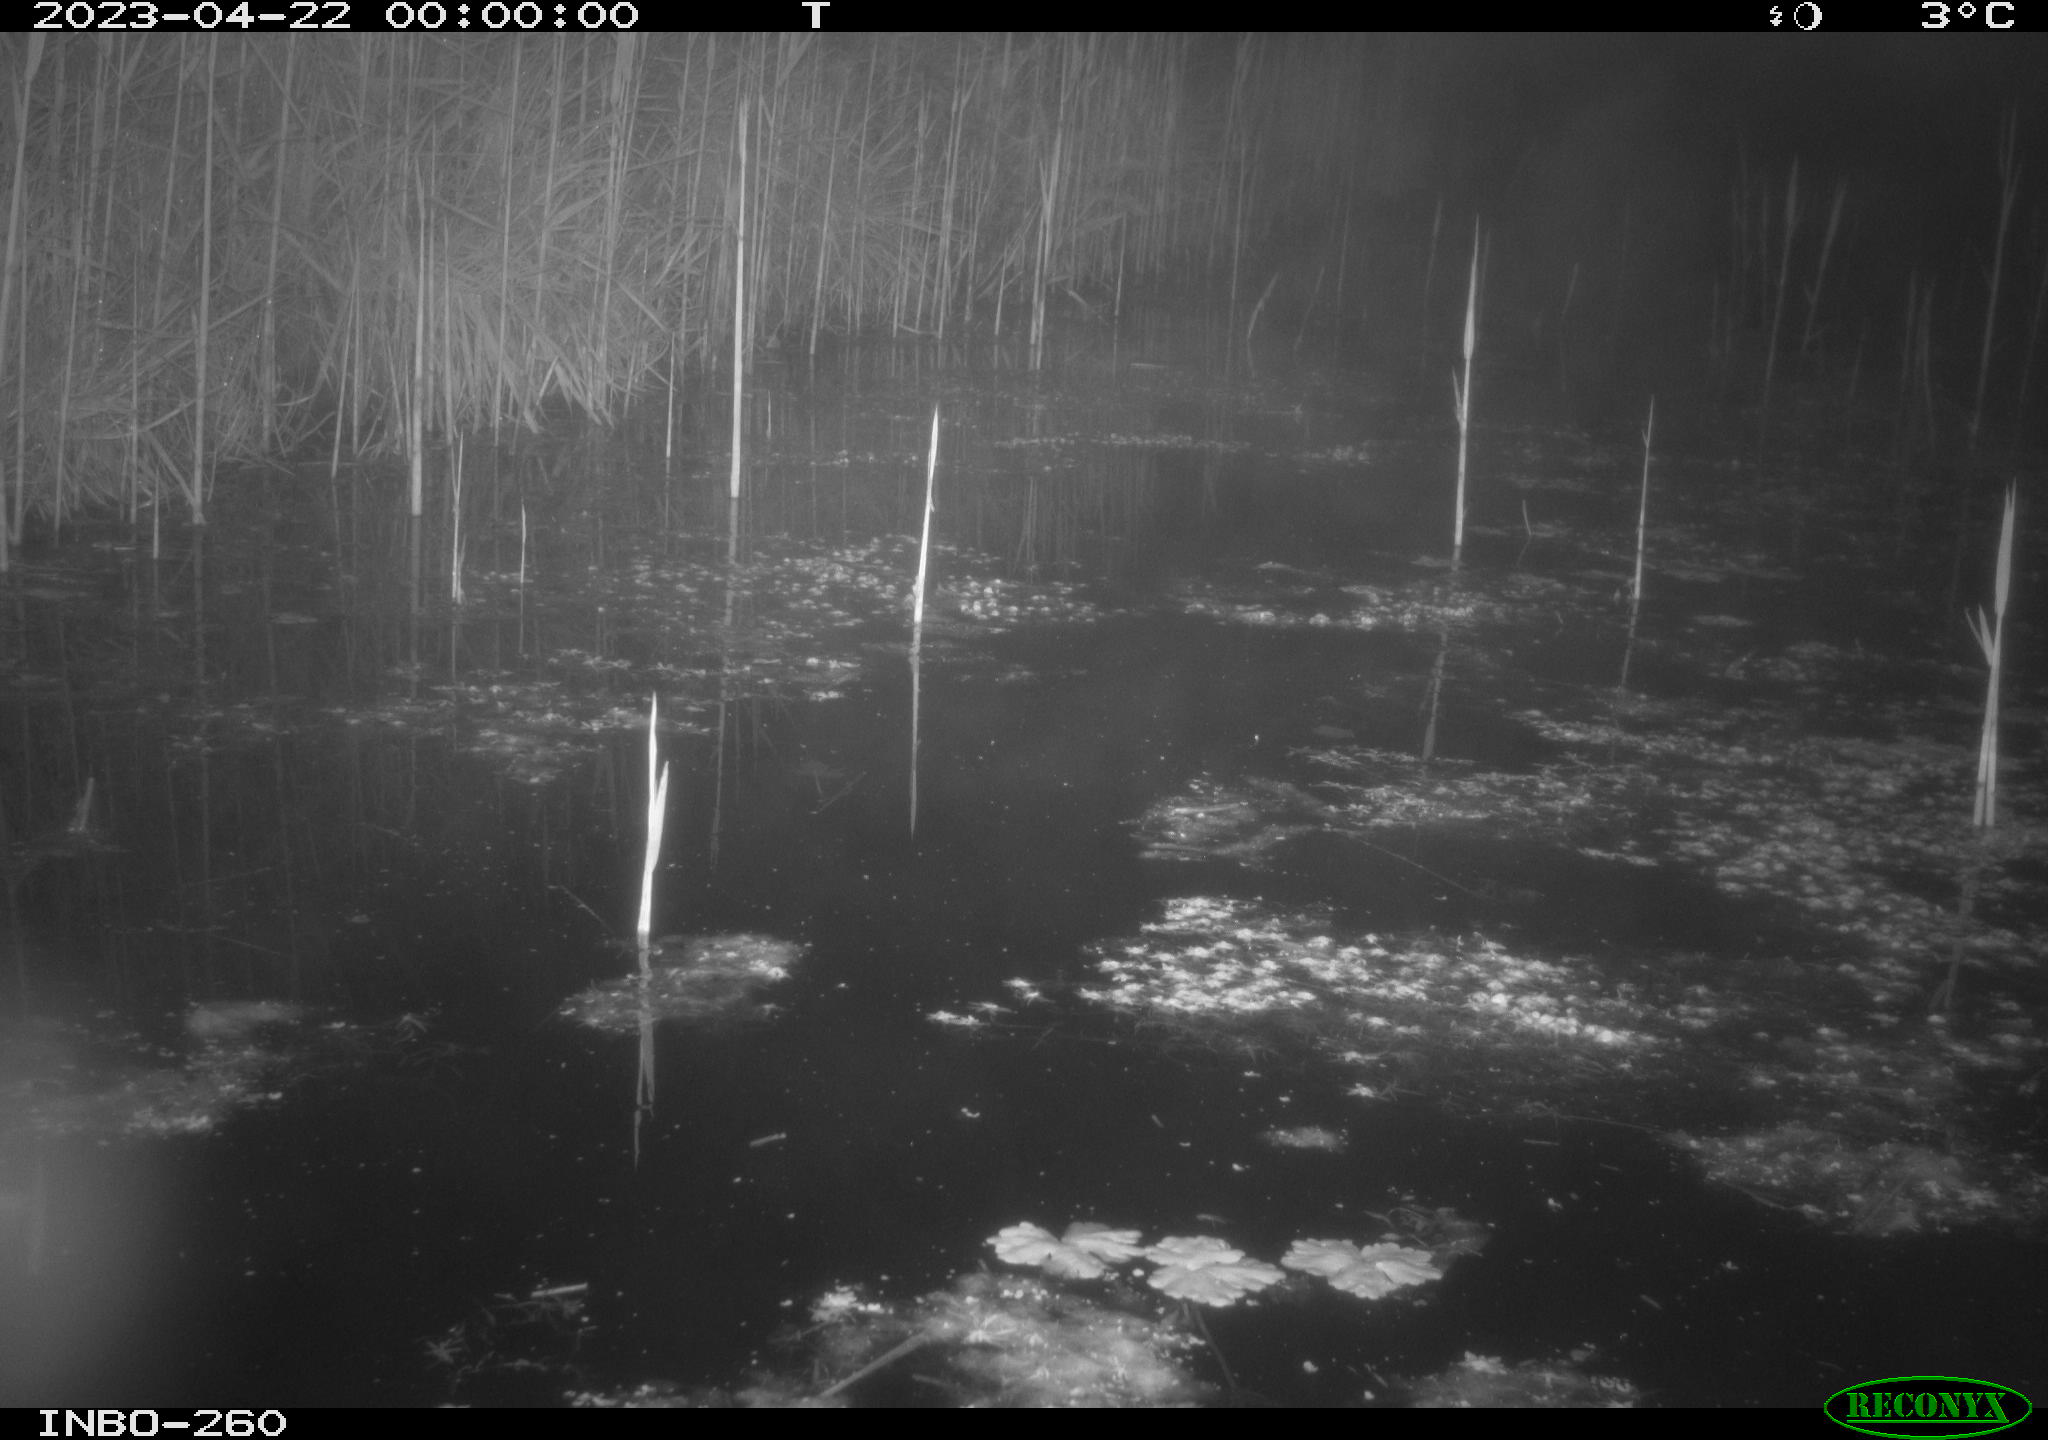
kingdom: Animalia
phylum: Chordata
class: Mammalia
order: Rodentia
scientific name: Rodentia
